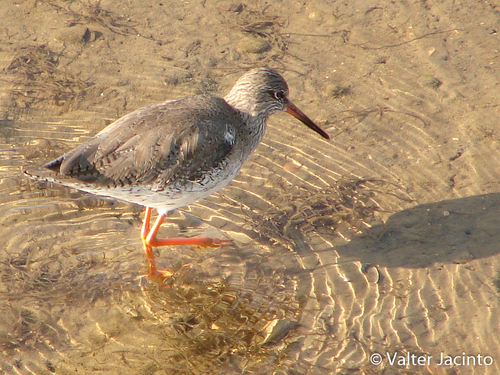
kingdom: Animalia
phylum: Chordata
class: Aves
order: Charadriiformes
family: Scolopacidae
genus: Tringa
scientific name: Tringa totanus
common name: Common redshank
